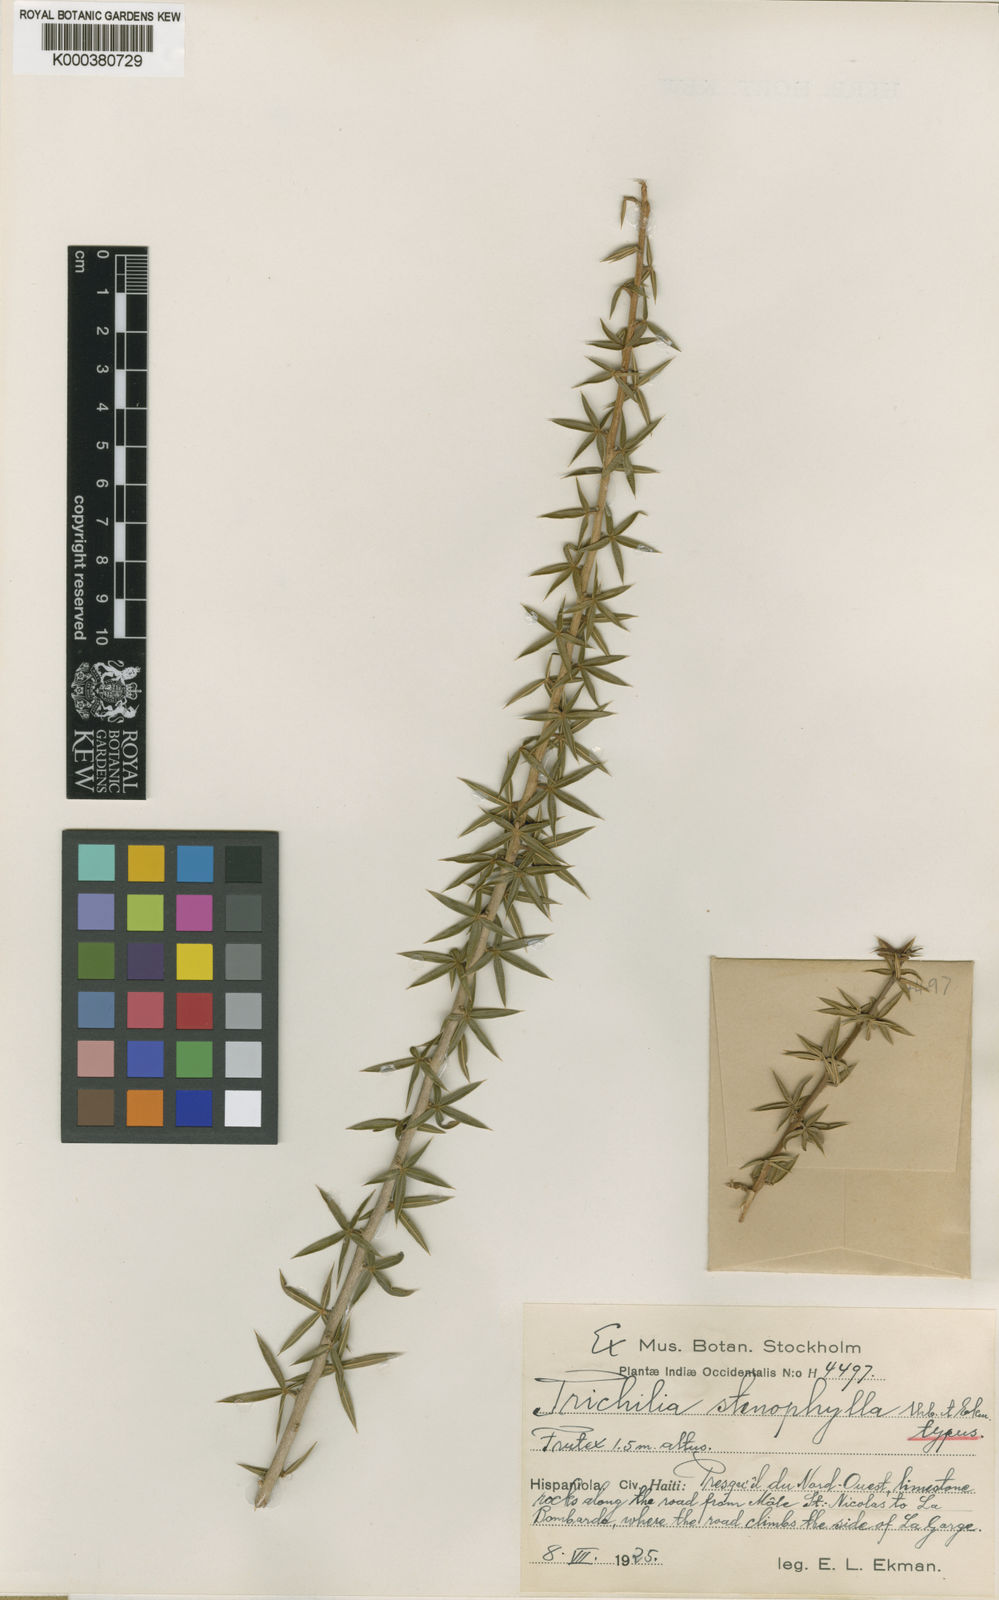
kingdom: Plantae
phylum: Tracheophyta
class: Magnoliopsida
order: Sapindales
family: Meliaceae
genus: Trichilia
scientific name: Trichilia stenophylla
